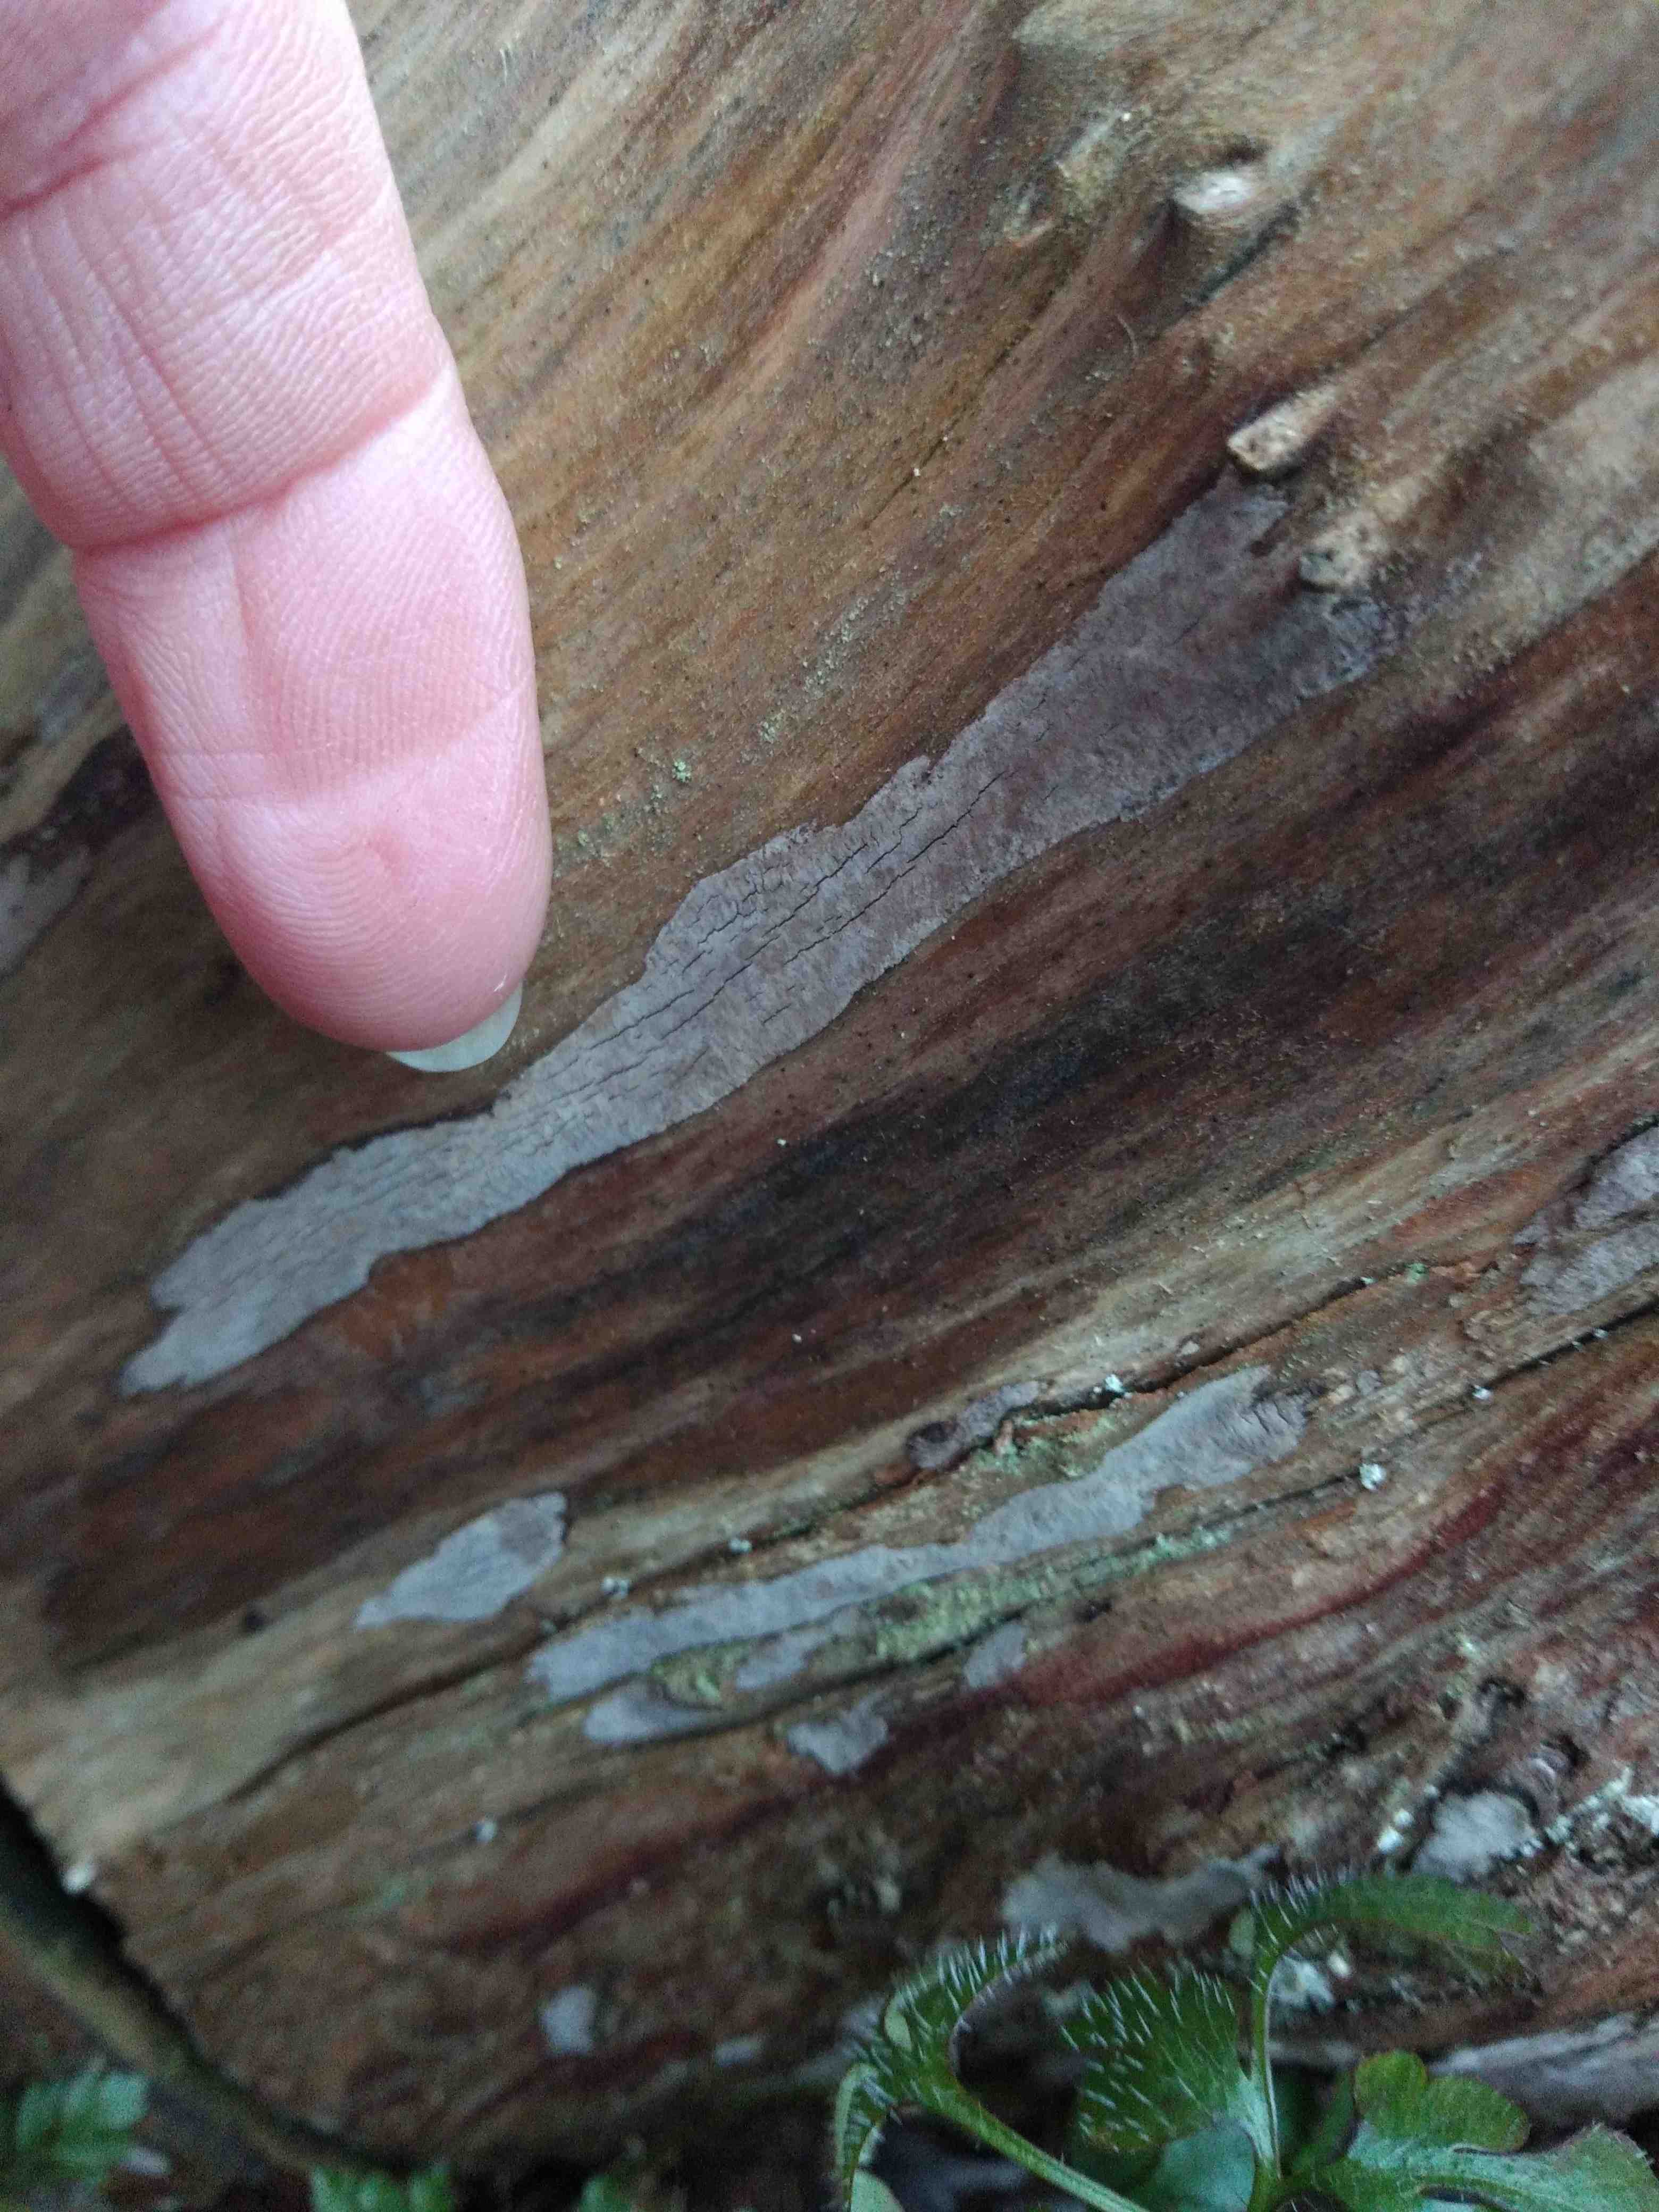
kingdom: Fungi
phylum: Basidiomycota
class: Agaricomycetes
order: Russulales
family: Echinodontiaceae
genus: Amylostereum
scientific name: Amylostereum laevigatum
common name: ene-lædersvamp
